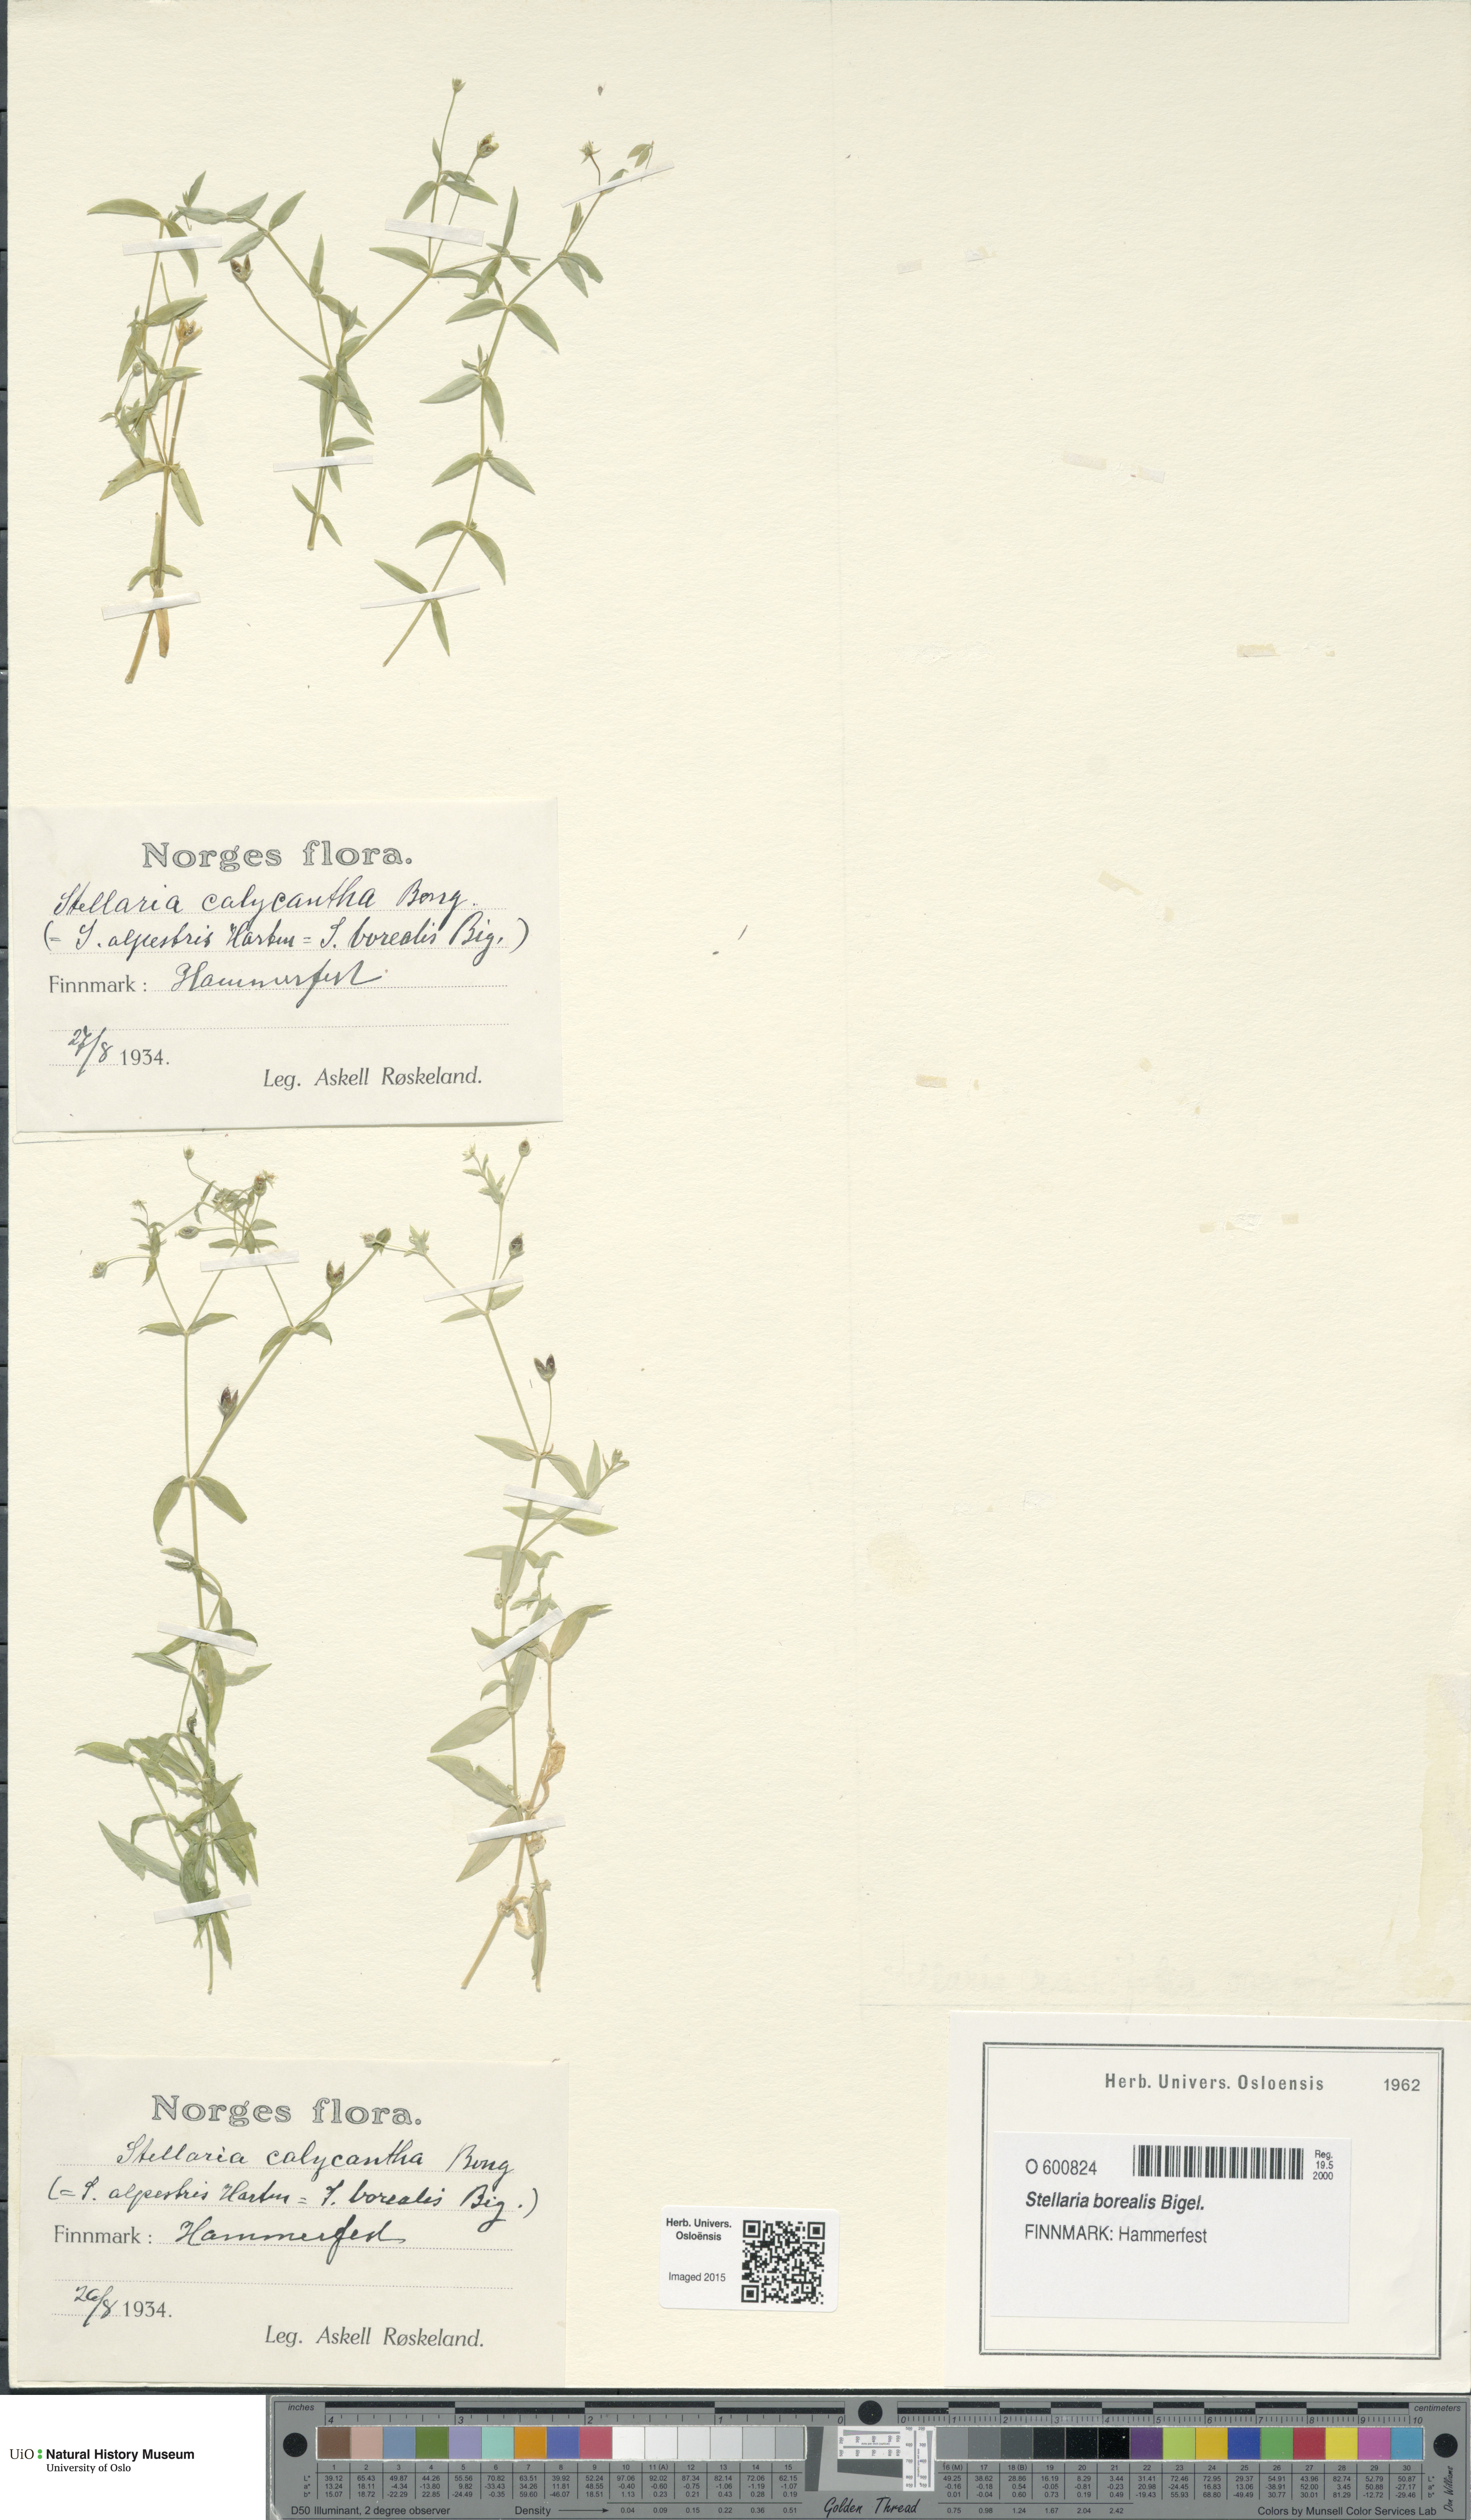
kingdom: Plantae
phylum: Tracheophyta
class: Magnoliopsida
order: Caryophyllales
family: Caryophyllaceae
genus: Stellaria
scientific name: Stellaria borealis
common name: Boreal starwort
